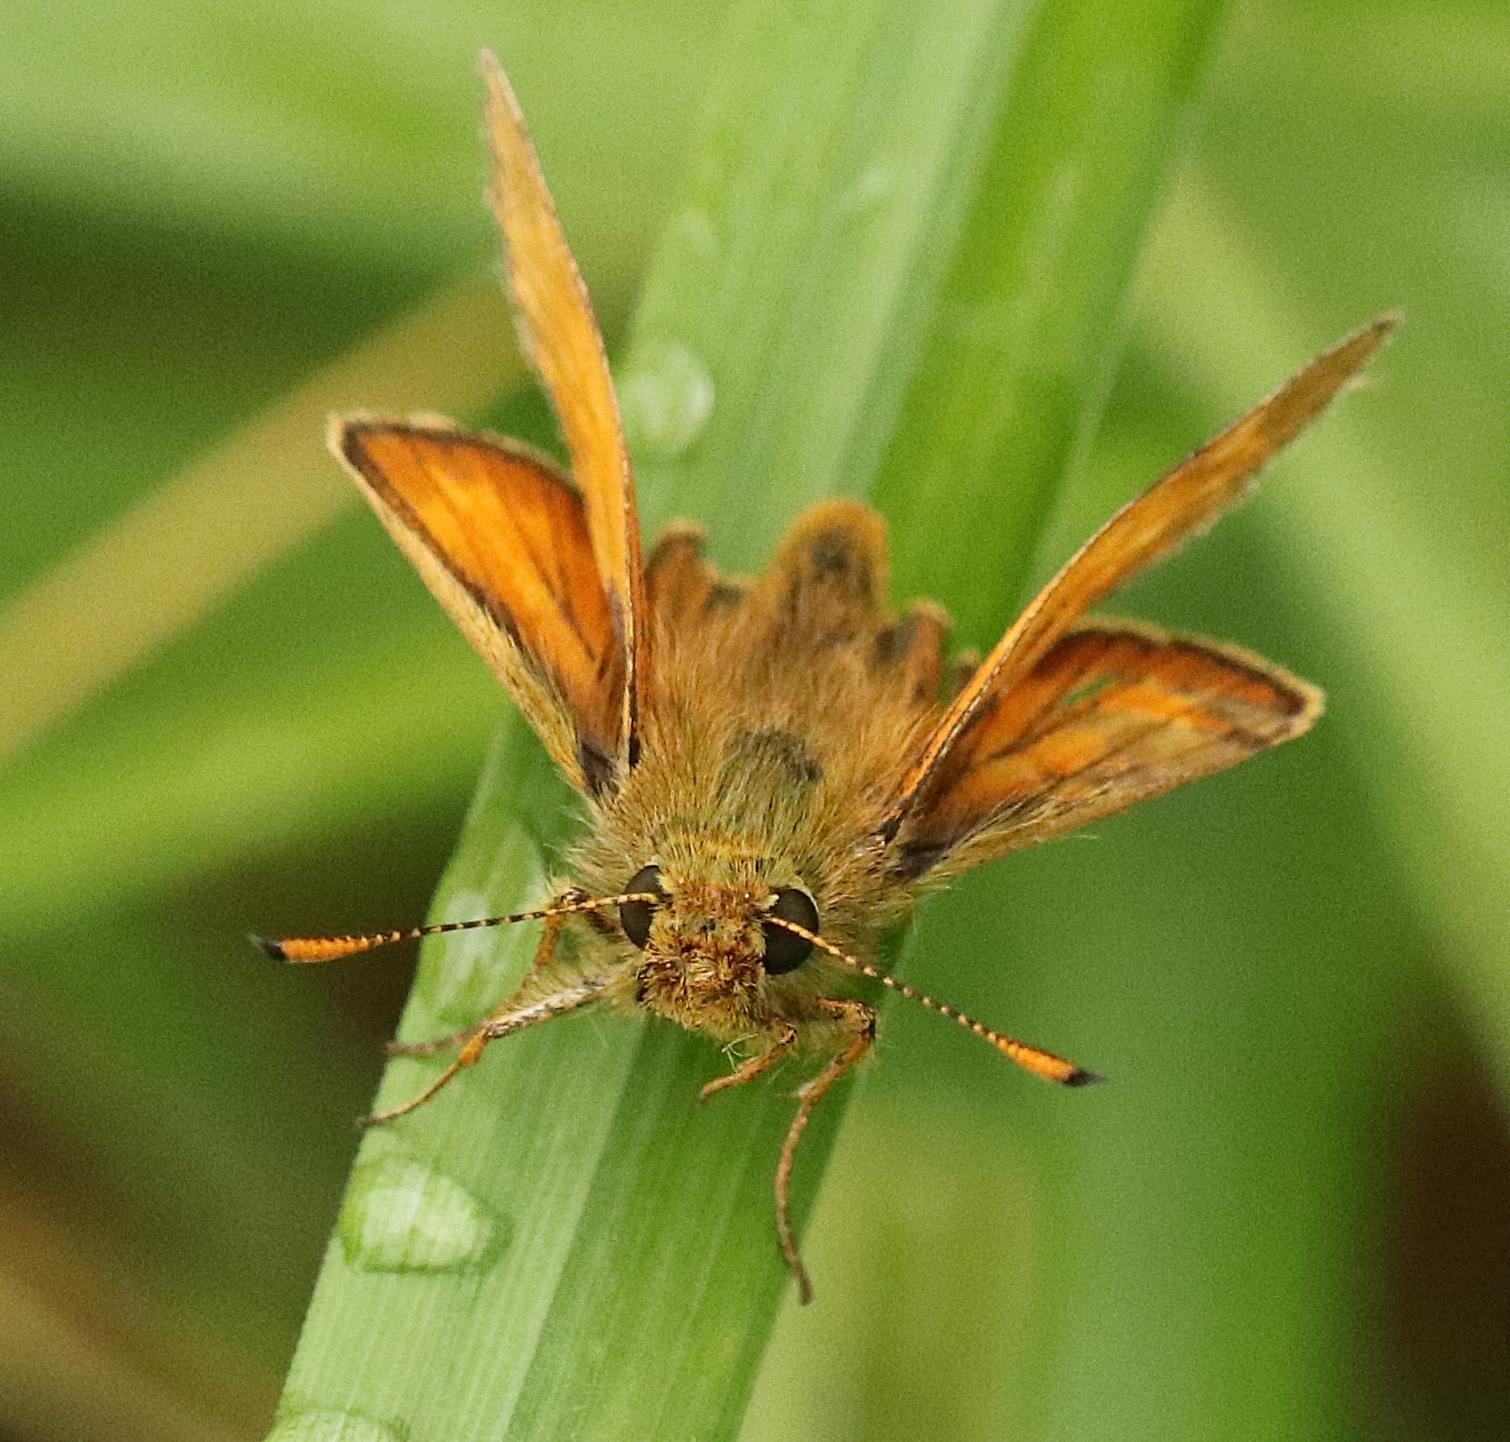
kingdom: Animalia
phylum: Arthropoda
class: Insecta
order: Lepidoptera
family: Hesperiidae
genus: Ochlodes
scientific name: Ochlodes venata
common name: Stor bredpande
